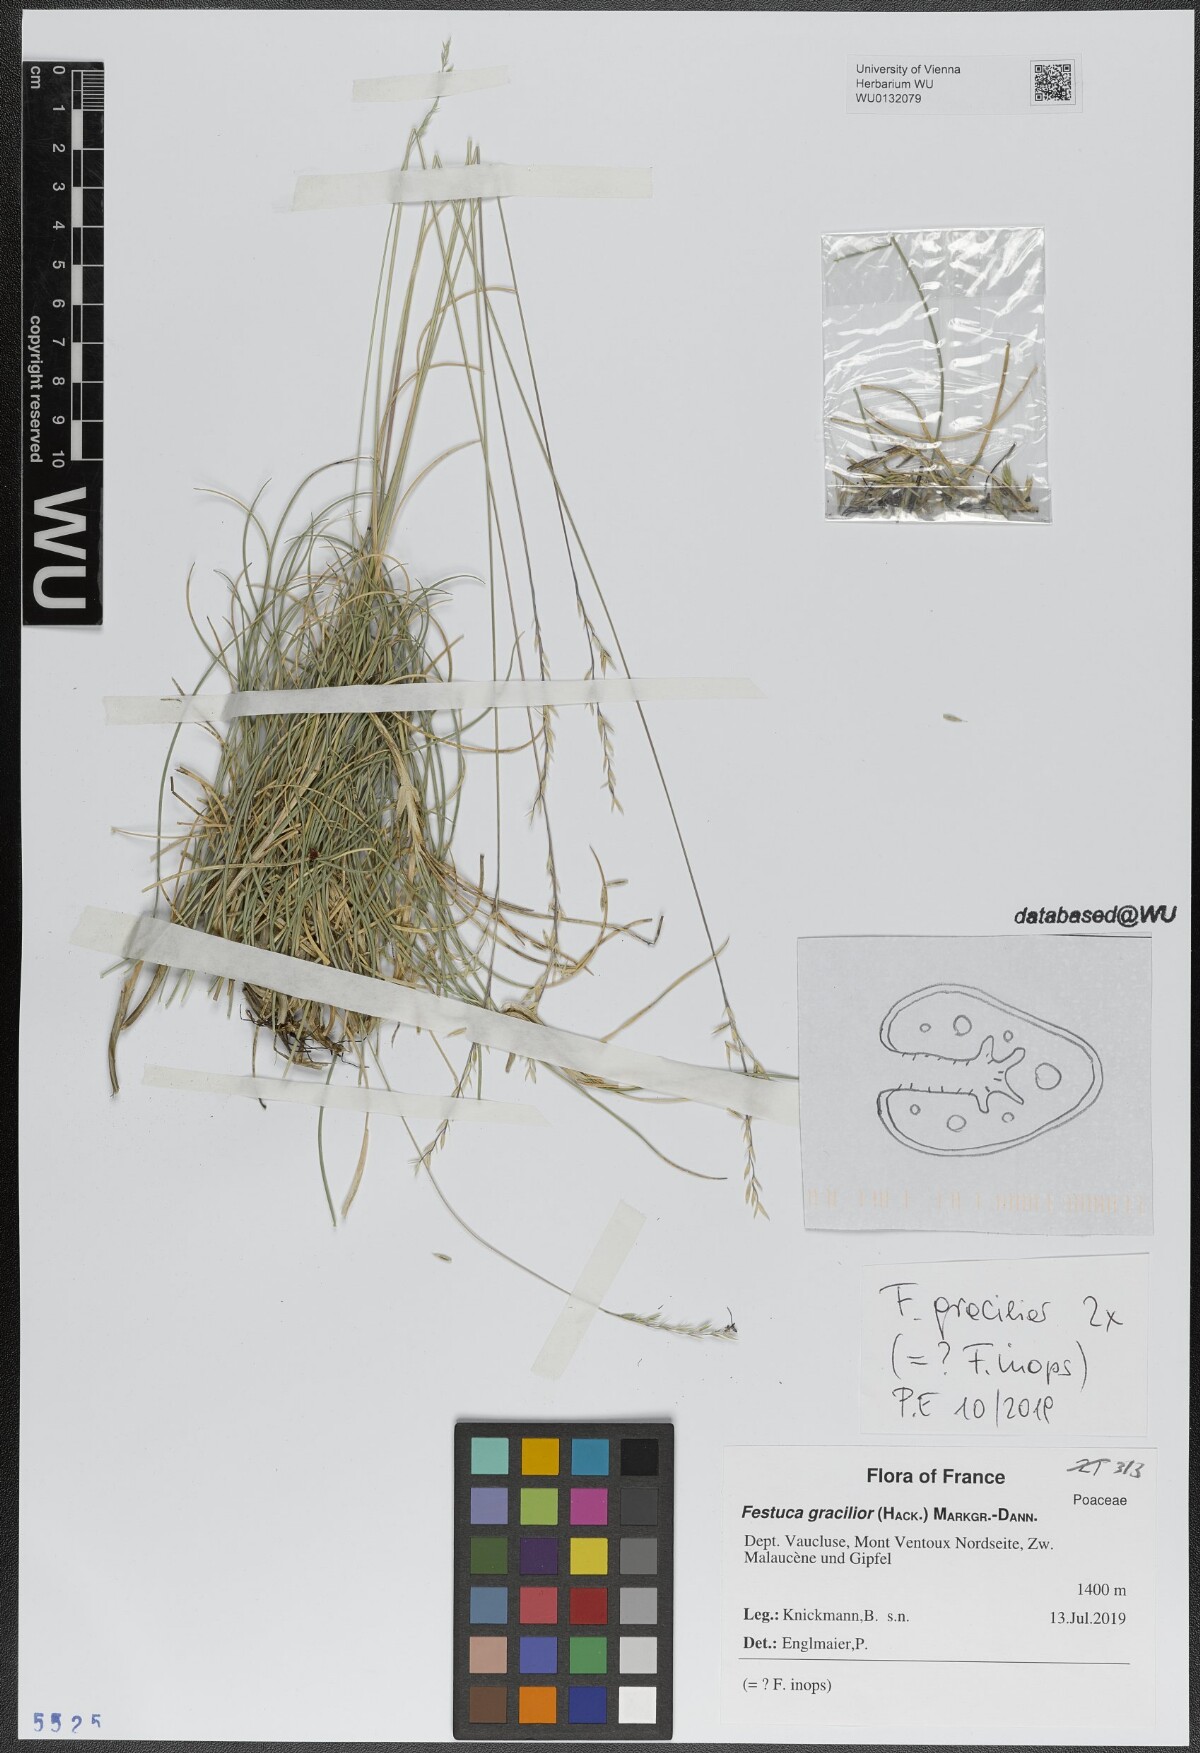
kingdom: Plantae
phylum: Tracheophyta
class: Liliopsida
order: Poales
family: Poaceae
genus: Festuca
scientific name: Festuca gracilior
